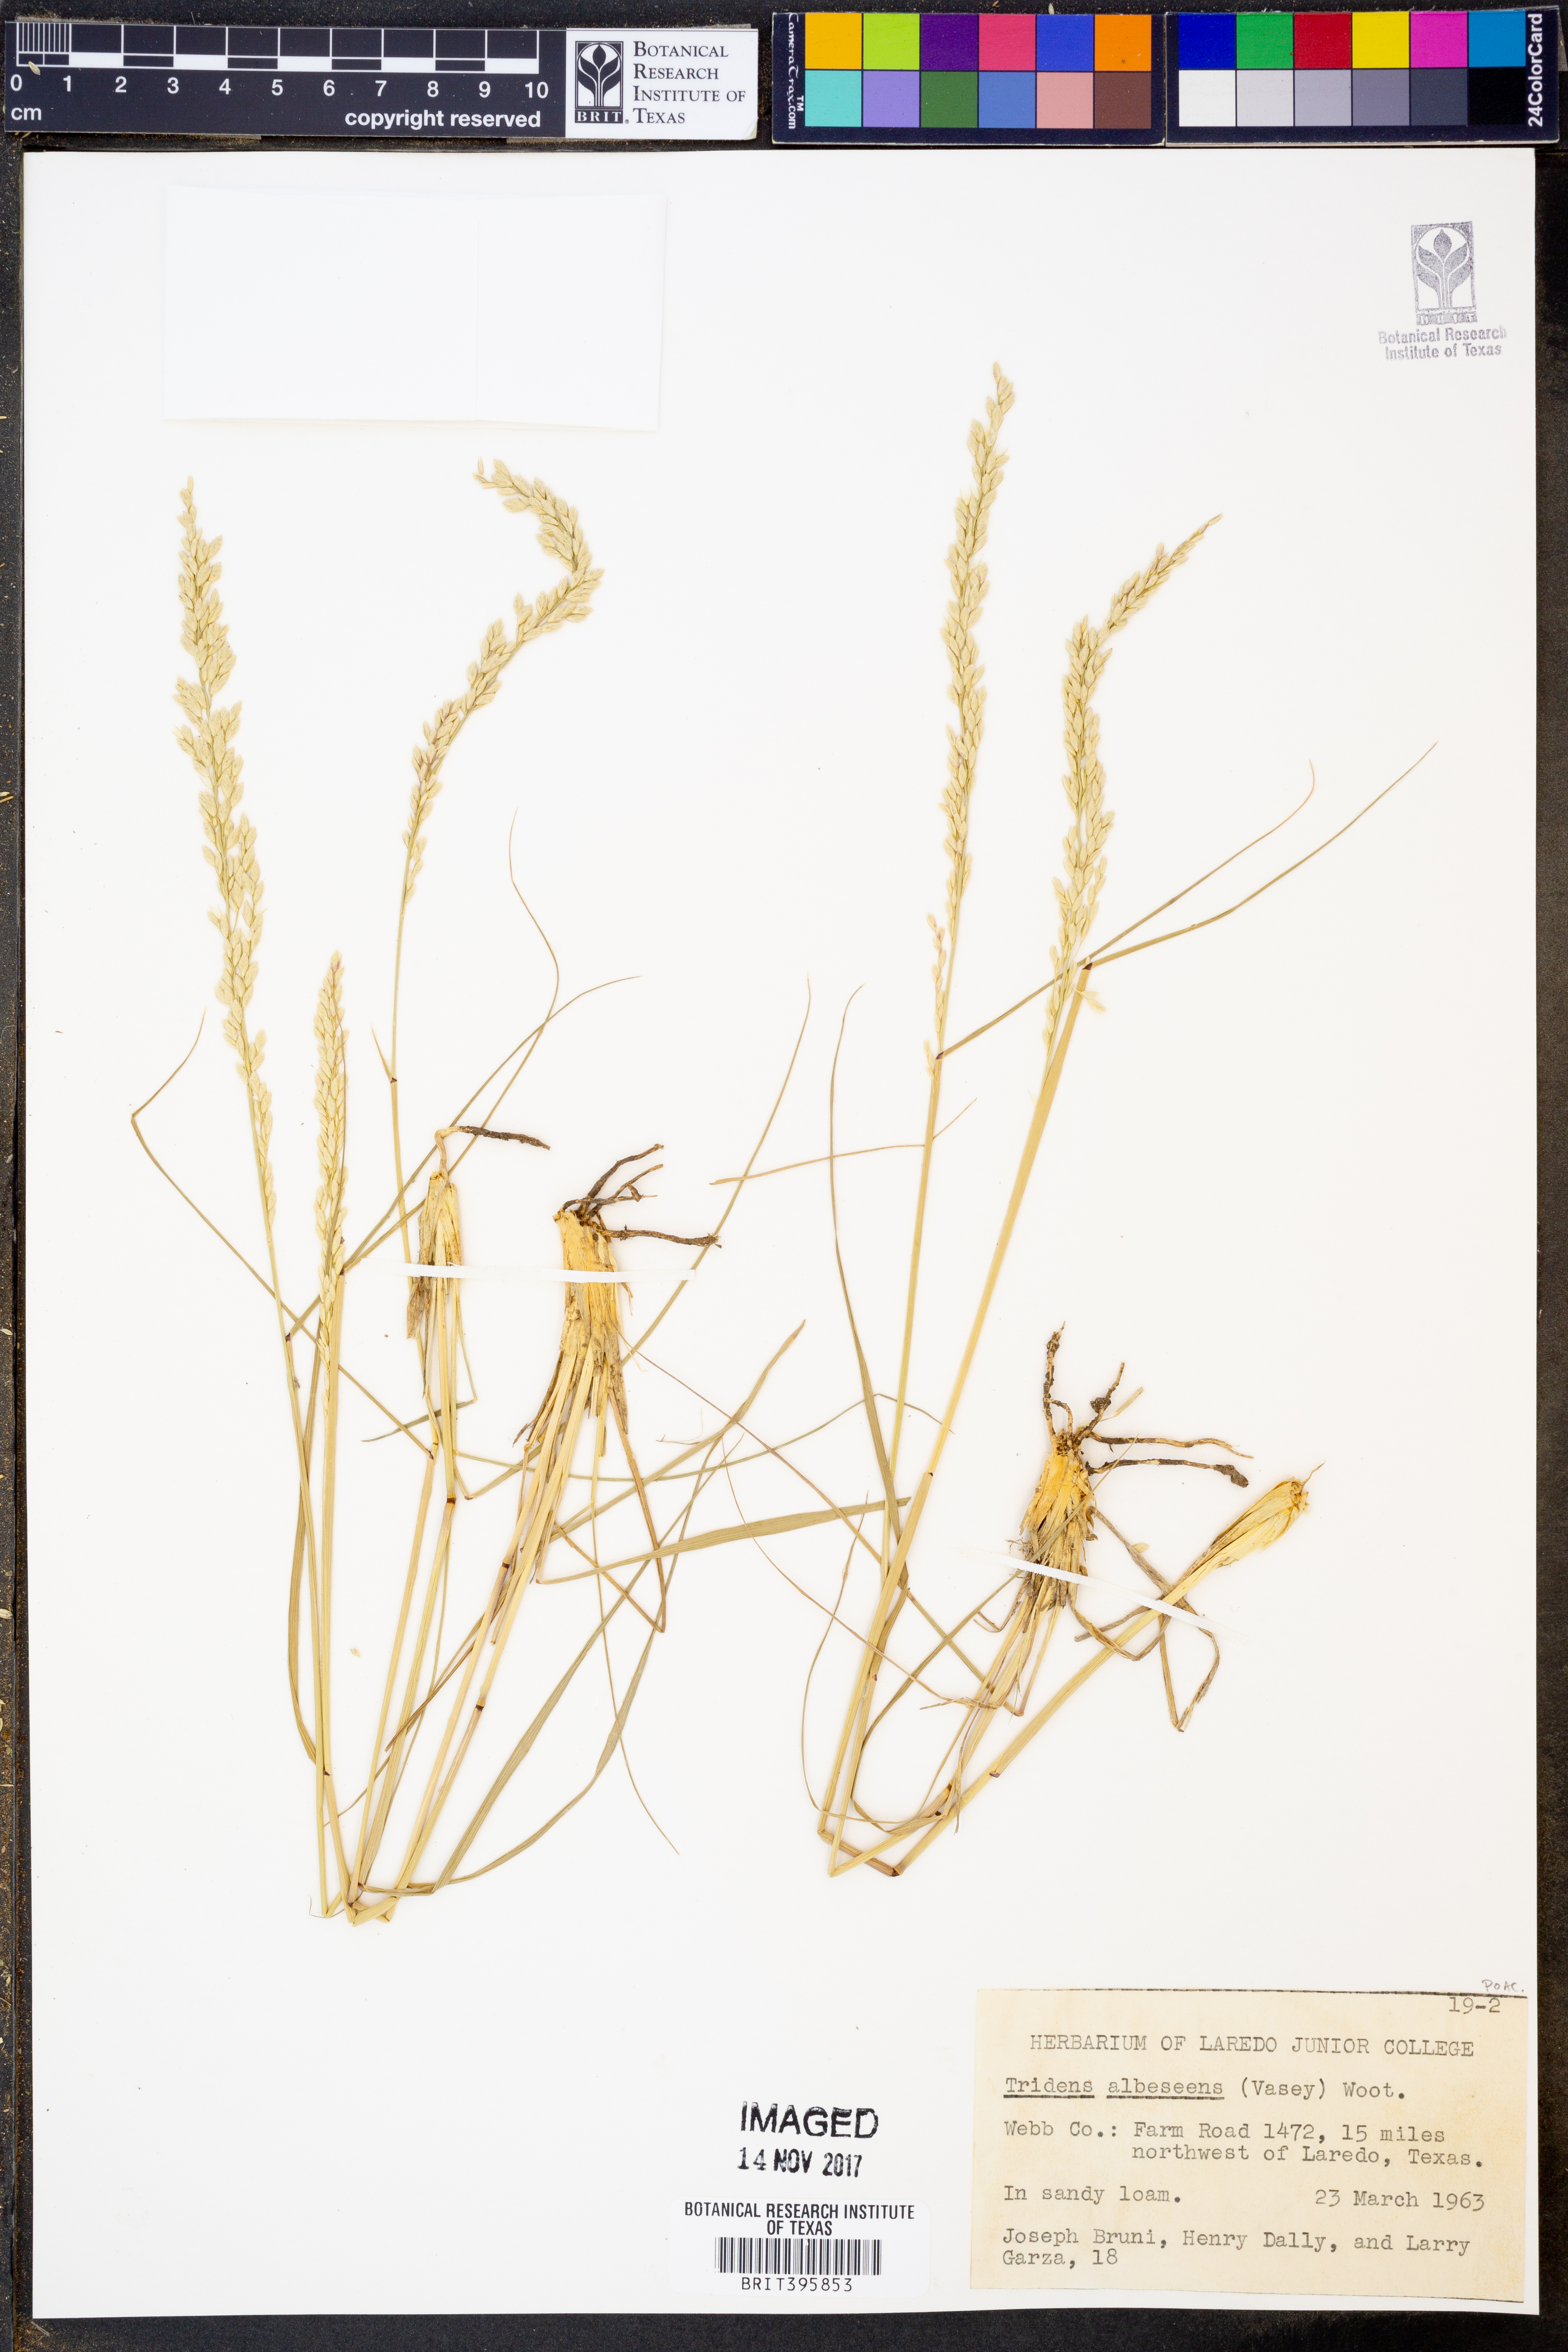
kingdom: Plantae
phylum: Tracheophyta
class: Liliopsida
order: Poales
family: Poaceae
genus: Tridens
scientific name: Tridens albescens
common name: White tridens
